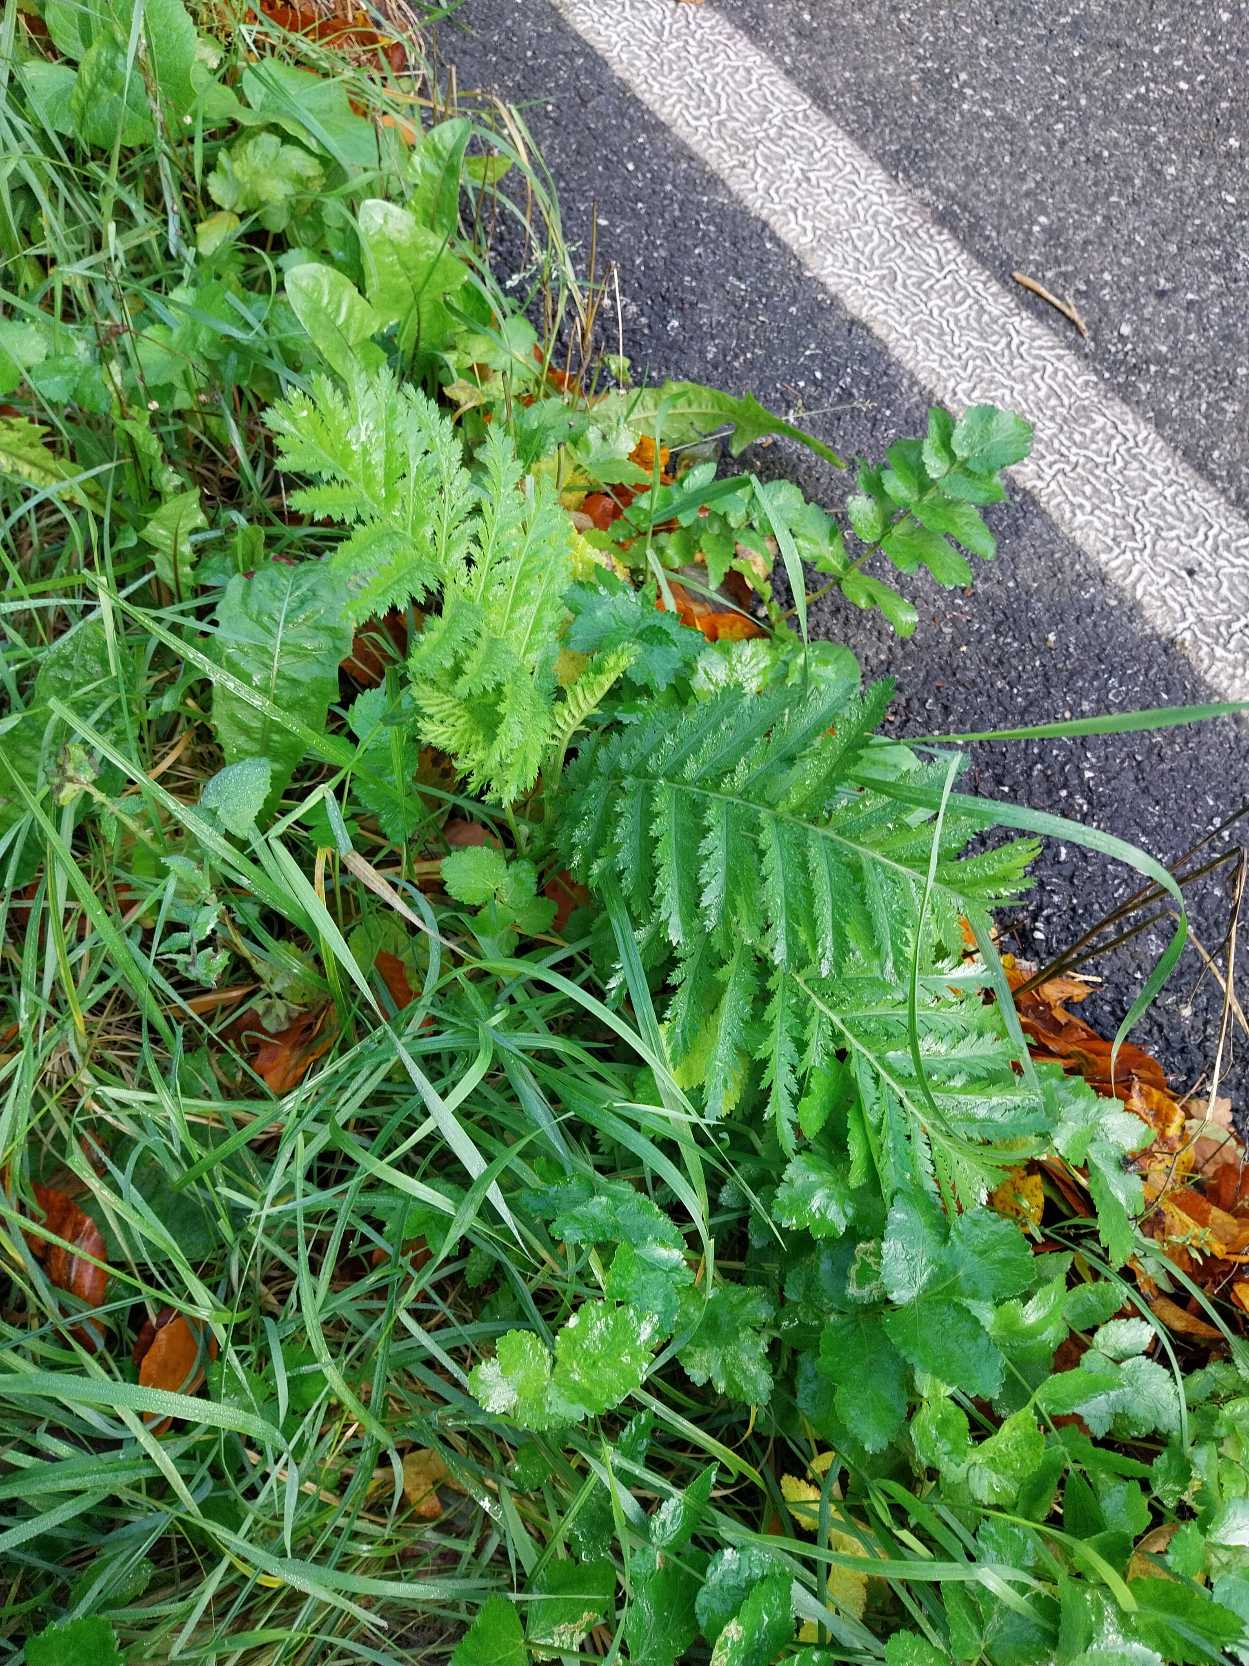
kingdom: Plantae
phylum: Tracheophyta
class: Magnoliopsida
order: Asterales
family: Asteraceae
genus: Tanacetum
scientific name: Tanacetum vulgare
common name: Rejnfan
